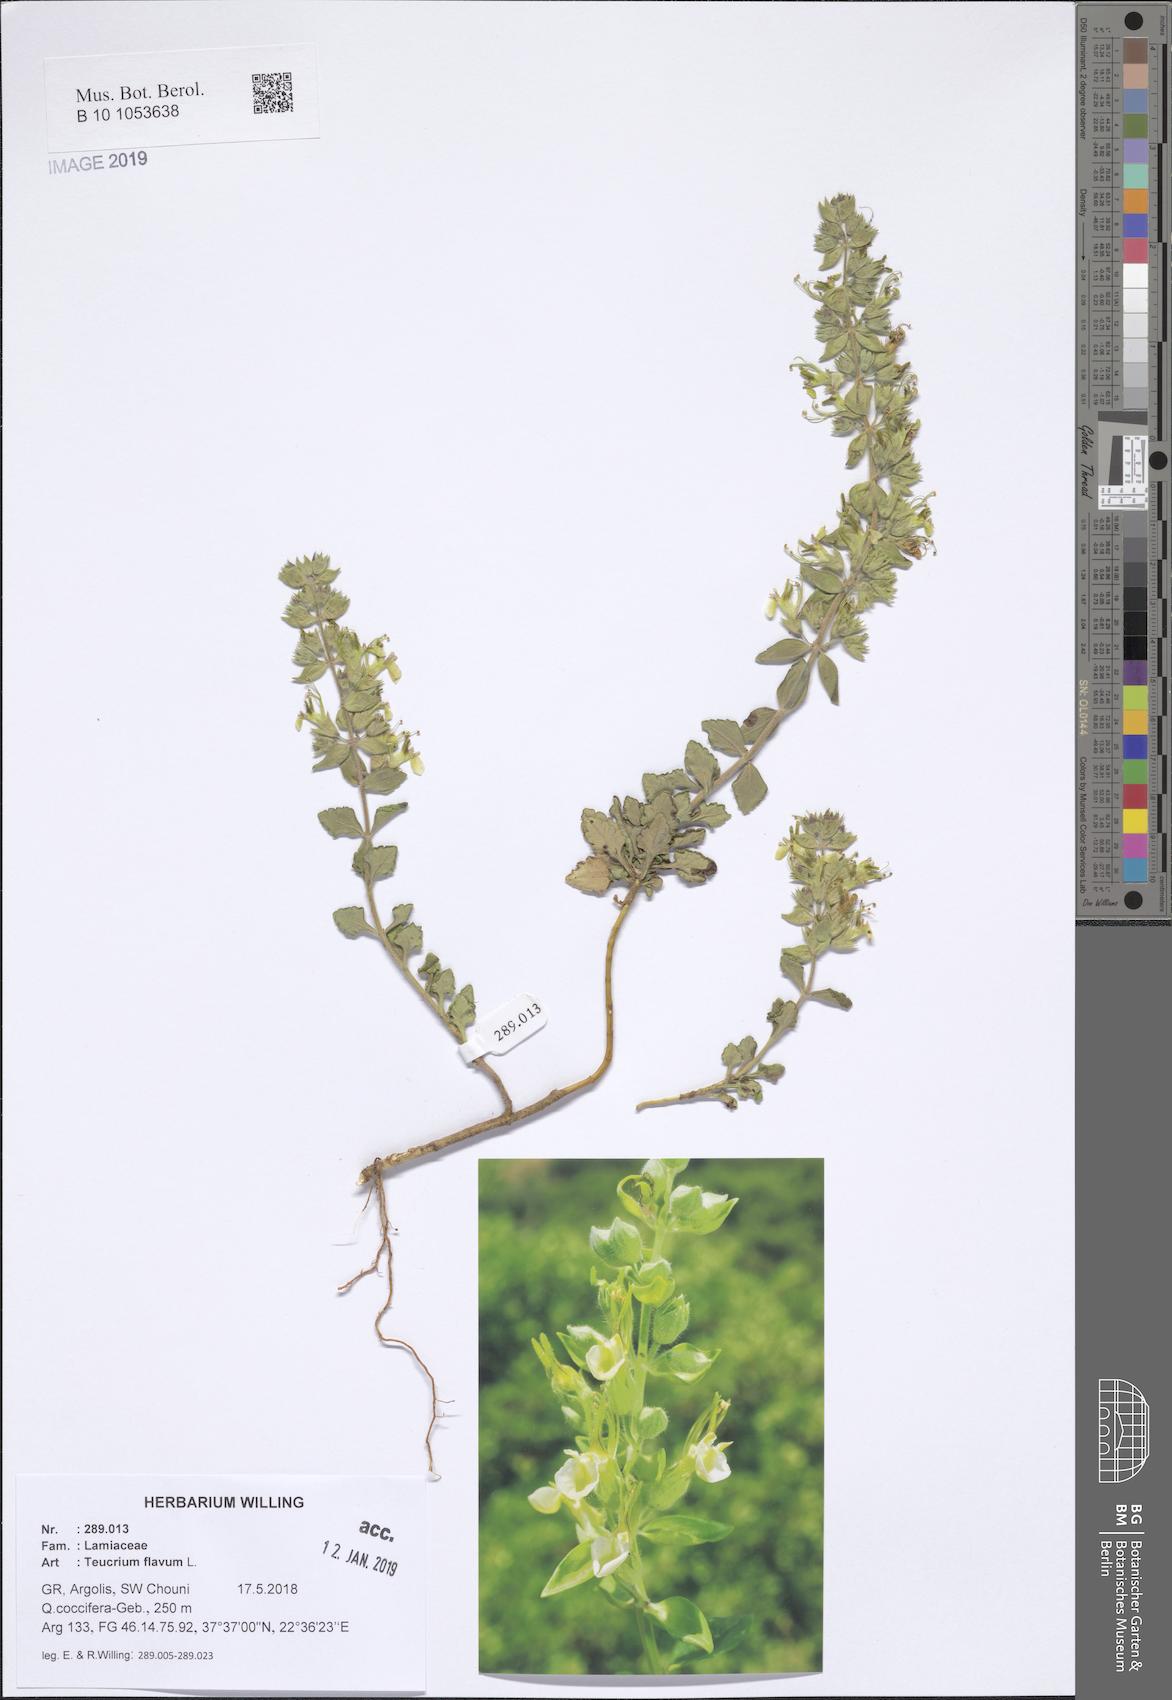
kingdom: Plantae
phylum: Tracheophyta
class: Magnoliopsida
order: Lamiales
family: Lamiaceae
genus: Teucrium
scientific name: Teucrium flavum
